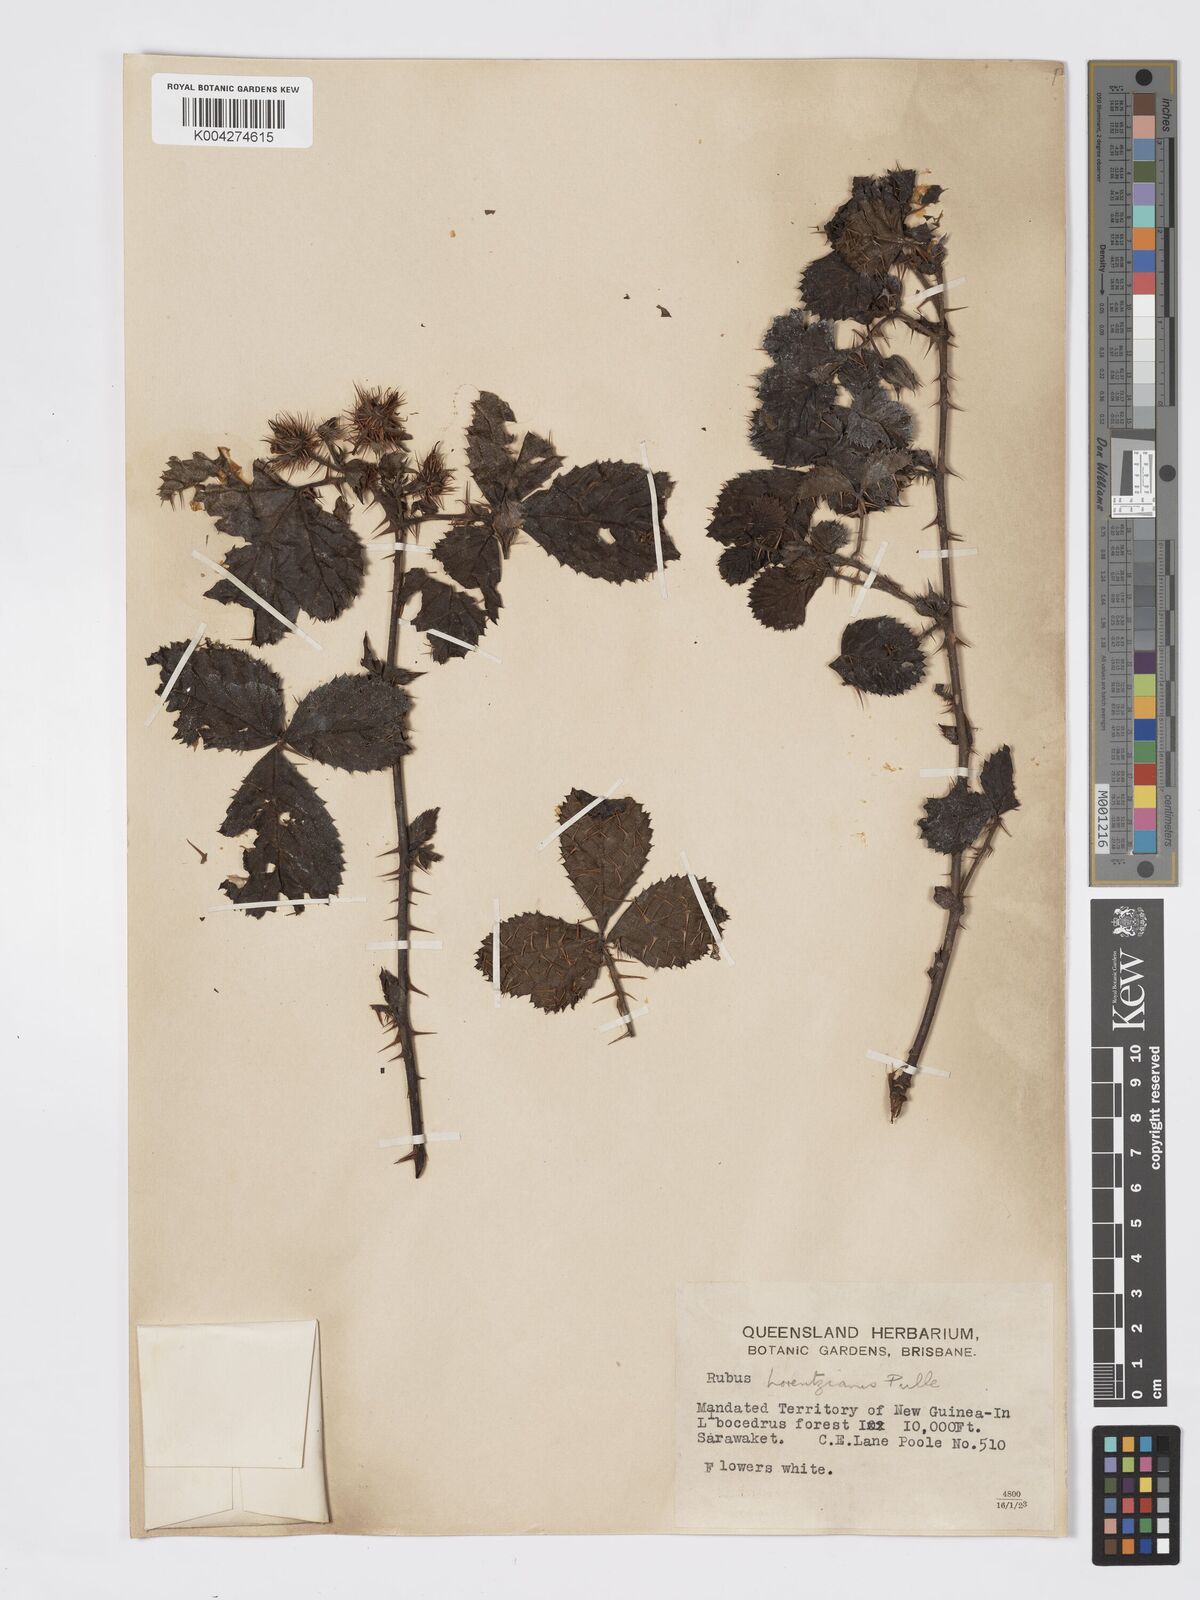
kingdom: Plantae
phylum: Tracheophyta
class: Magnoliopsida
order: Rosales
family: Rosaceae
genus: Rubus
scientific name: Rubus lorentzianus
